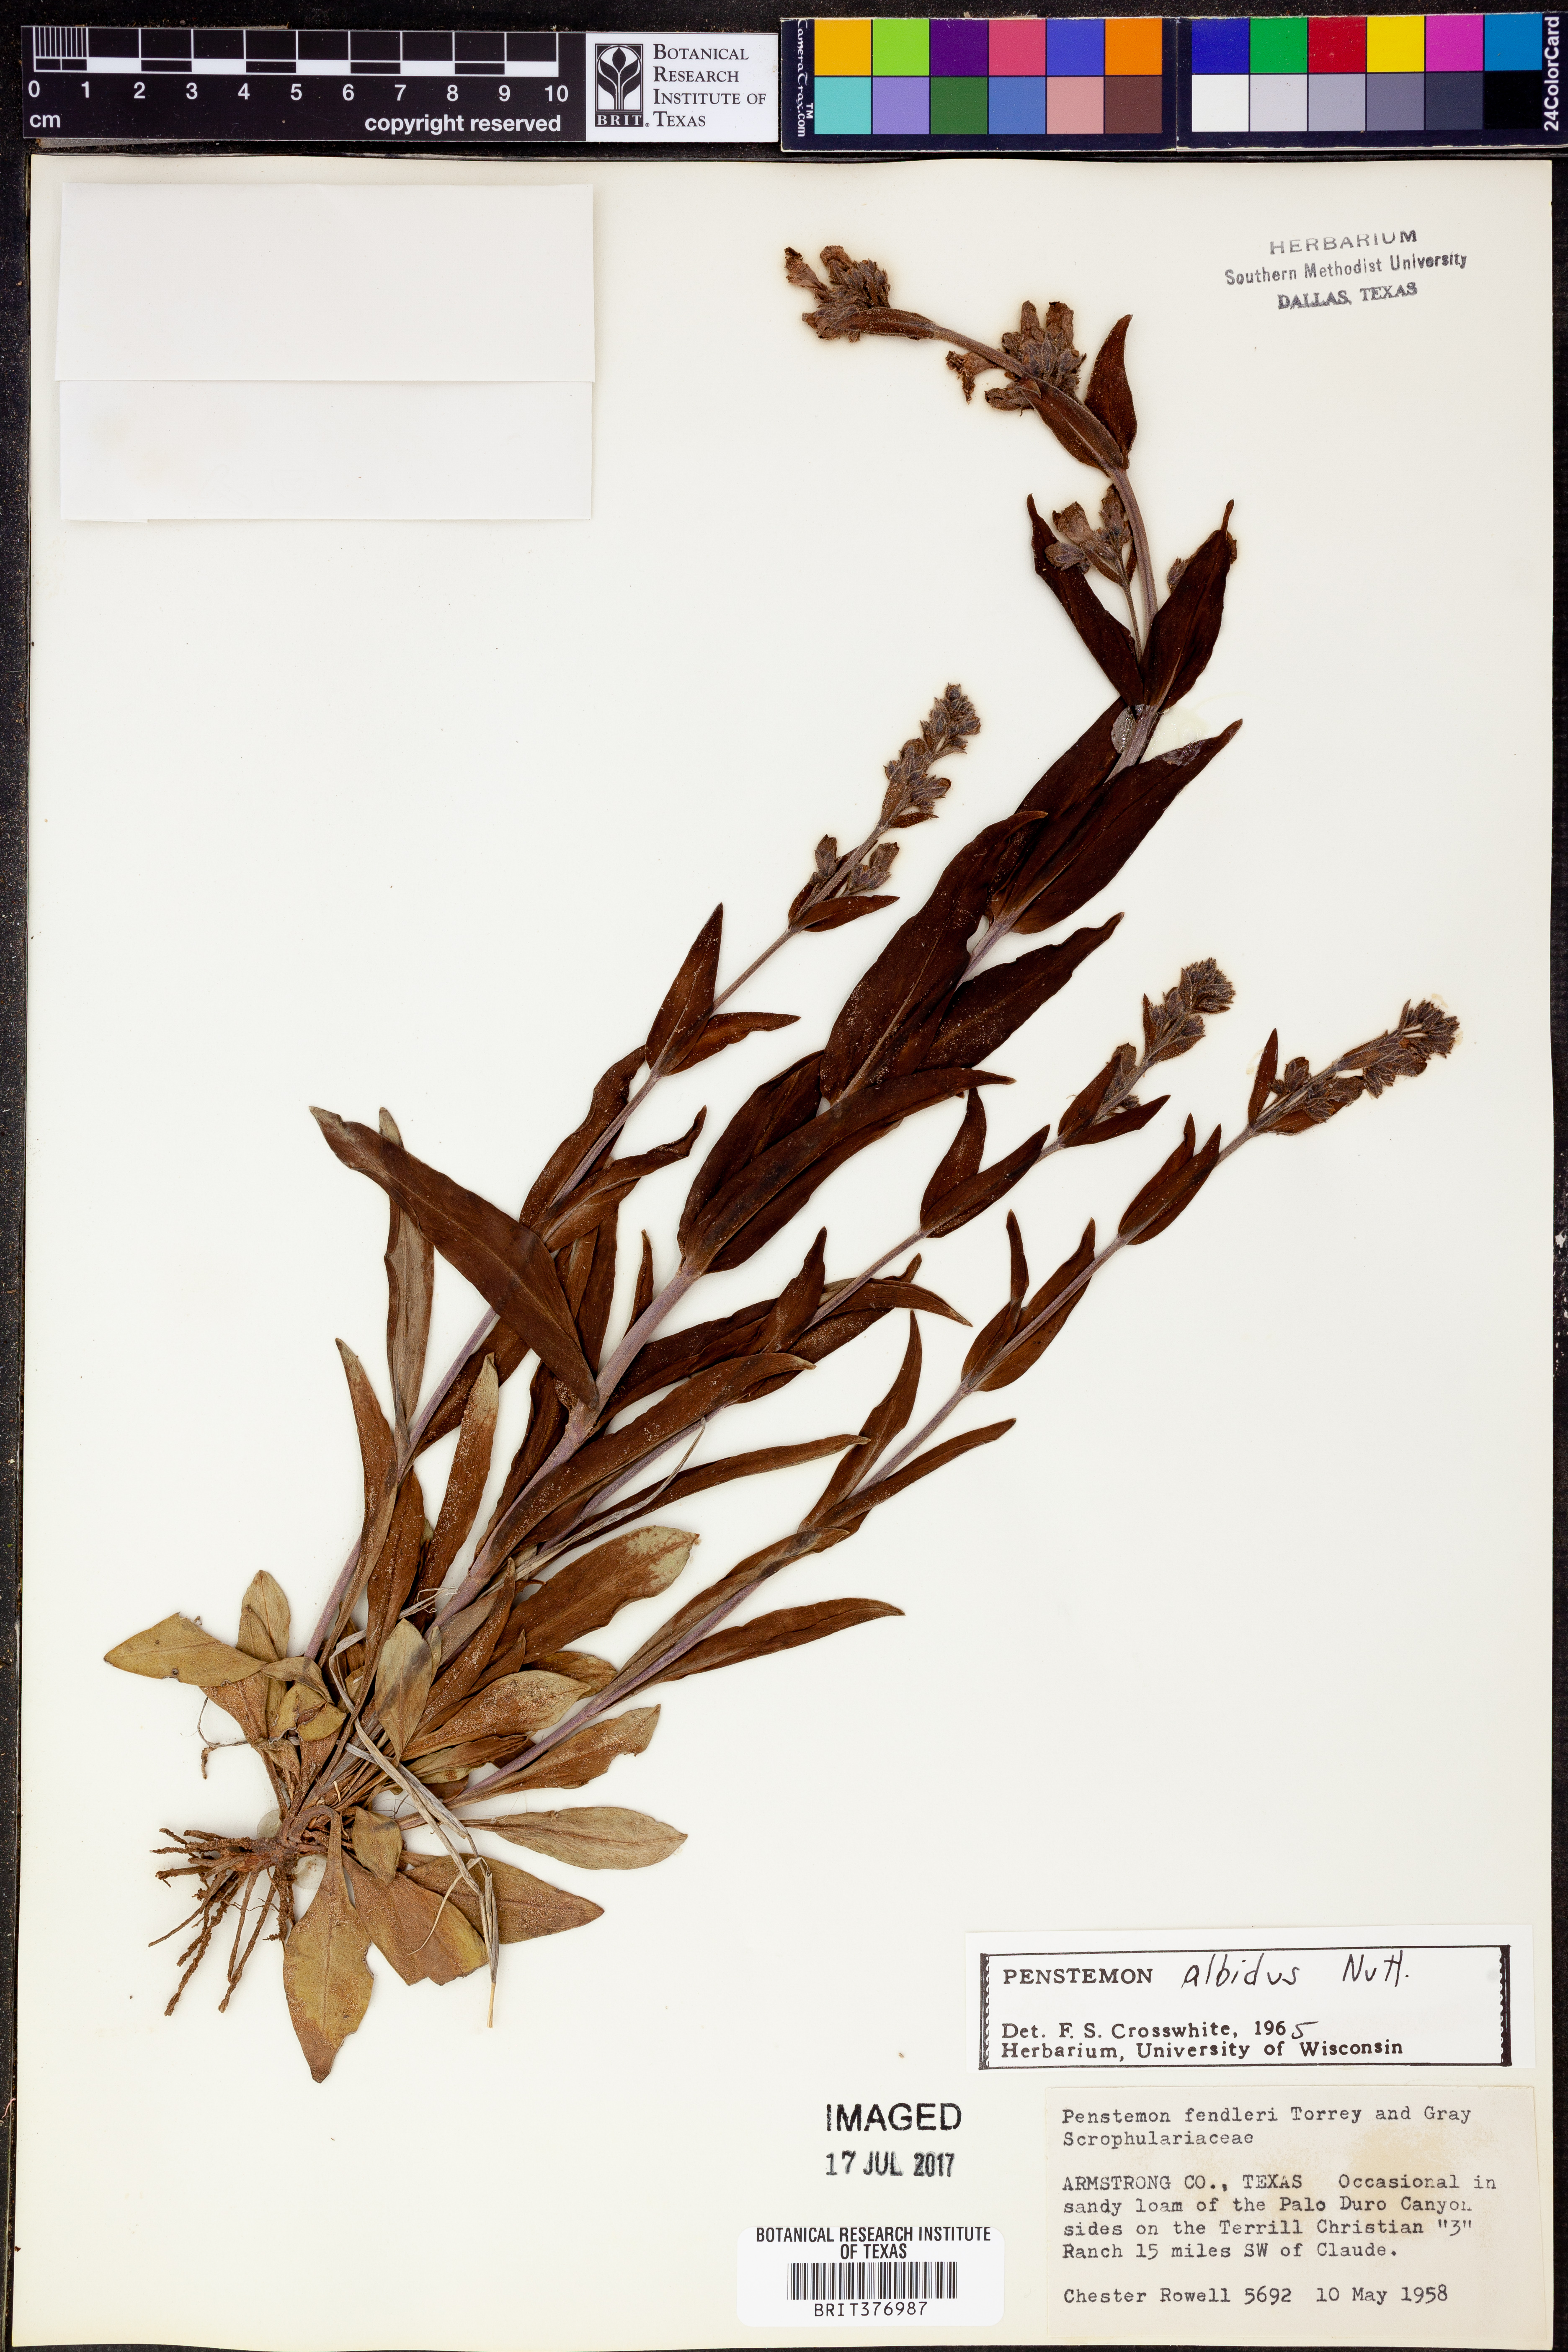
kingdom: Plantae
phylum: Tracheophyta
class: Magnoliopsida
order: Lamiales
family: Plantaginaceae
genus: Penstemon
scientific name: Penstemon albidus
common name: White beardtongue
